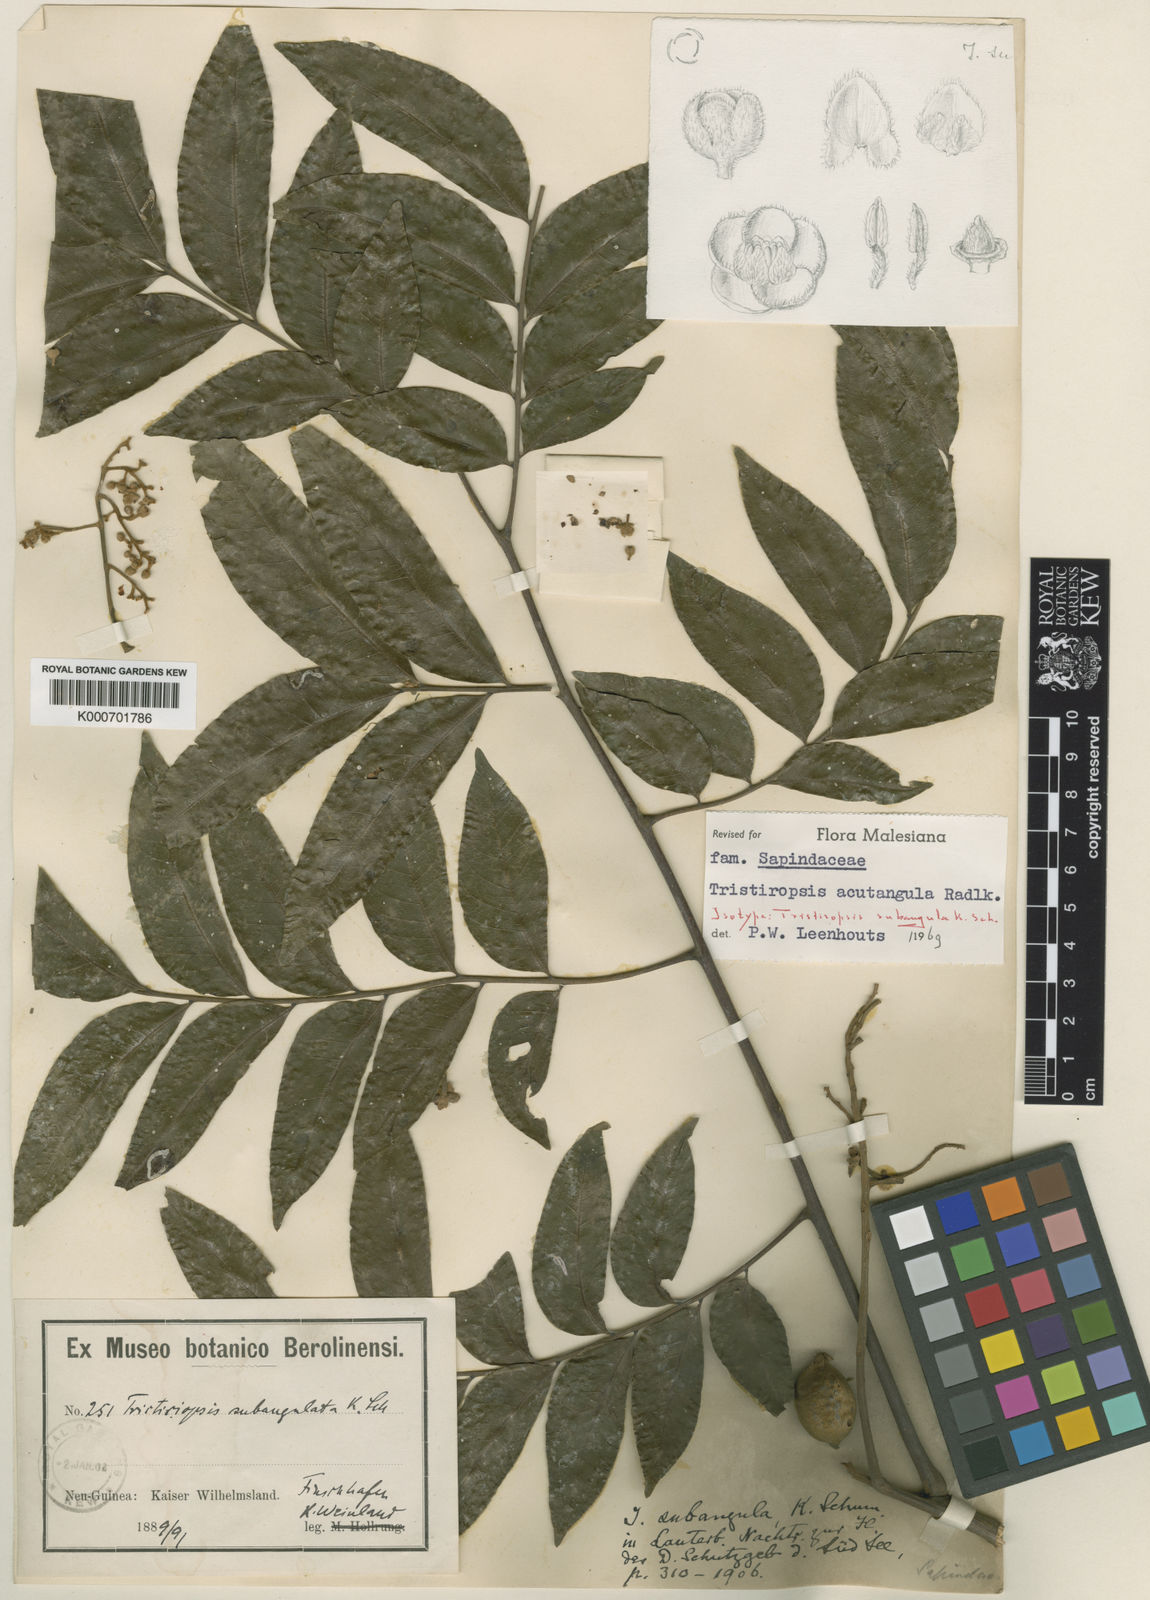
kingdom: Plantae
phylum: Tracheophyta
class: Magnoliopsida
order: Sapindales
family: Sapindaceae
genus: Tristiropsis
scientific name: Tristiropsis acutangula
